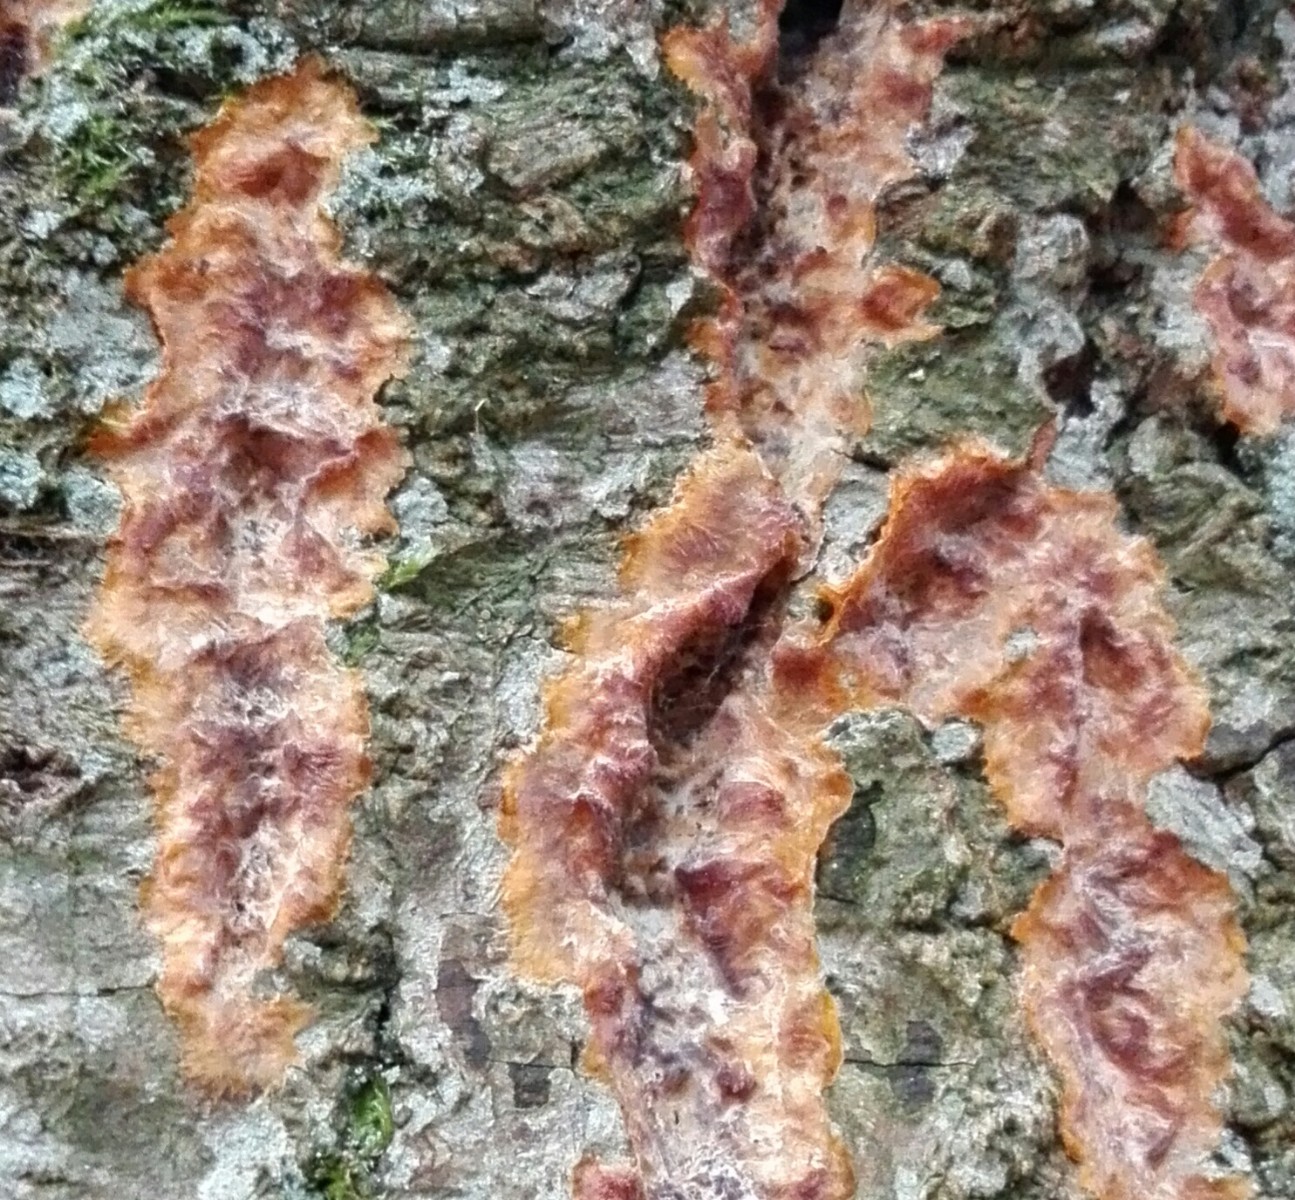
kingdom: Fungi
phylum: Basidiomycota
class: Agaricomycetes
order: Polyporales
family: Meruliaceae
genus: Phlebia
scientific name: Phlebia radiata
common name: stråle-åresvamp
